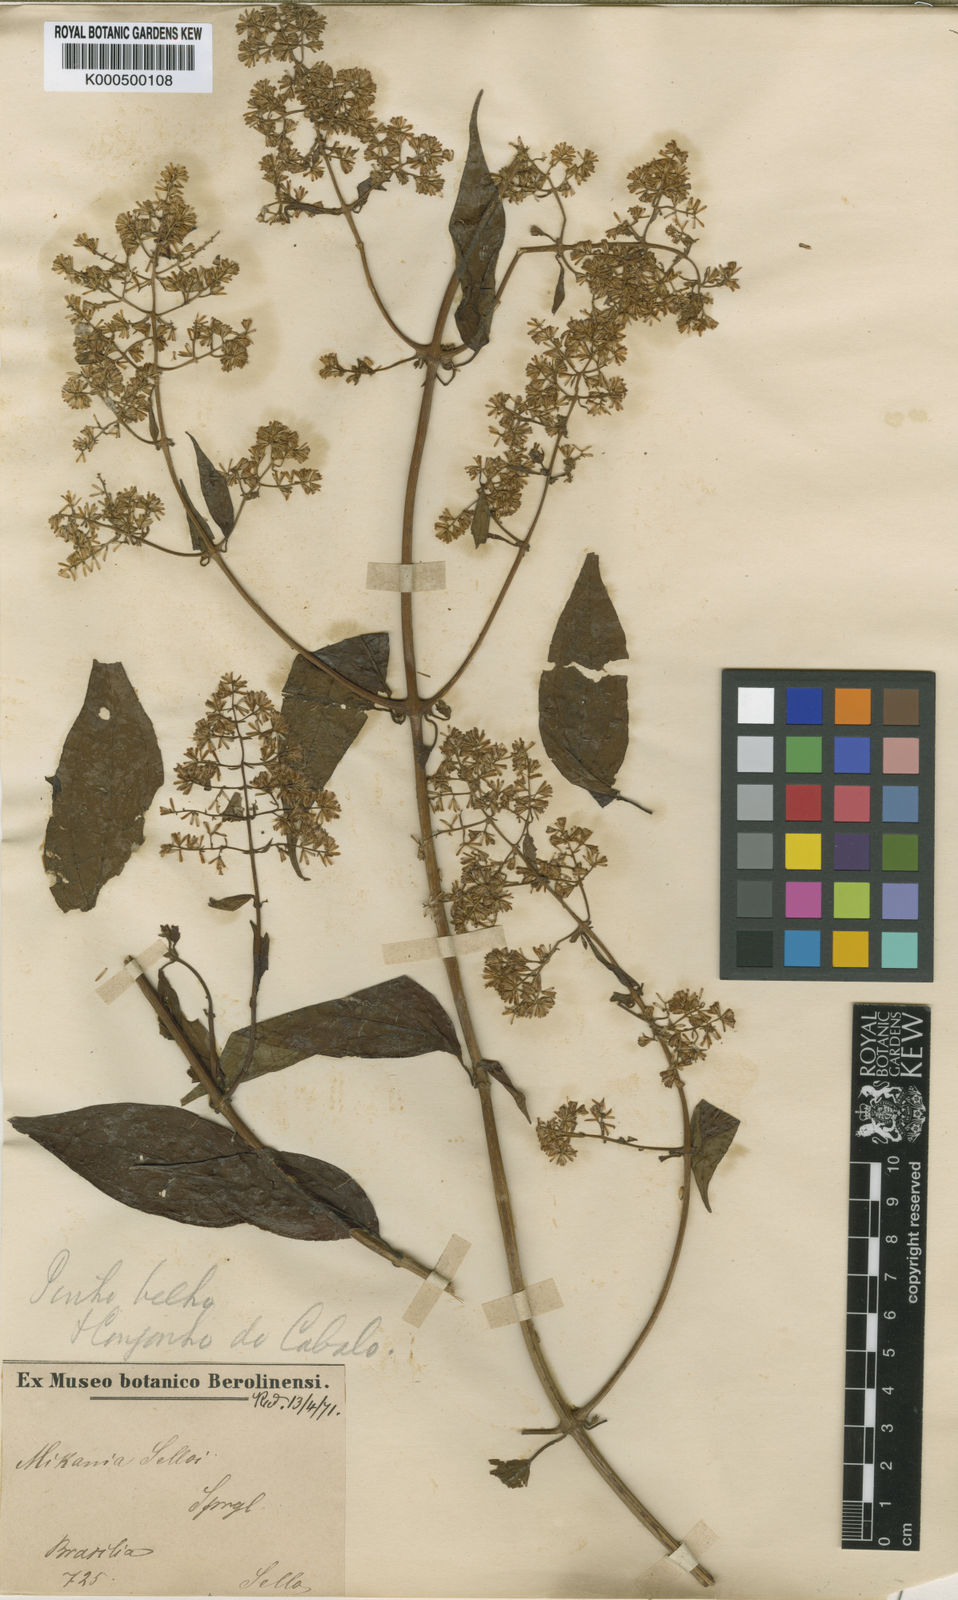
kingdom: Plantae
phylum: Tracheophyta
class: Magnoliopsida
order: Asterales
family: Asteraceae
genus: Mikania
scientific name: Mikania selloi
